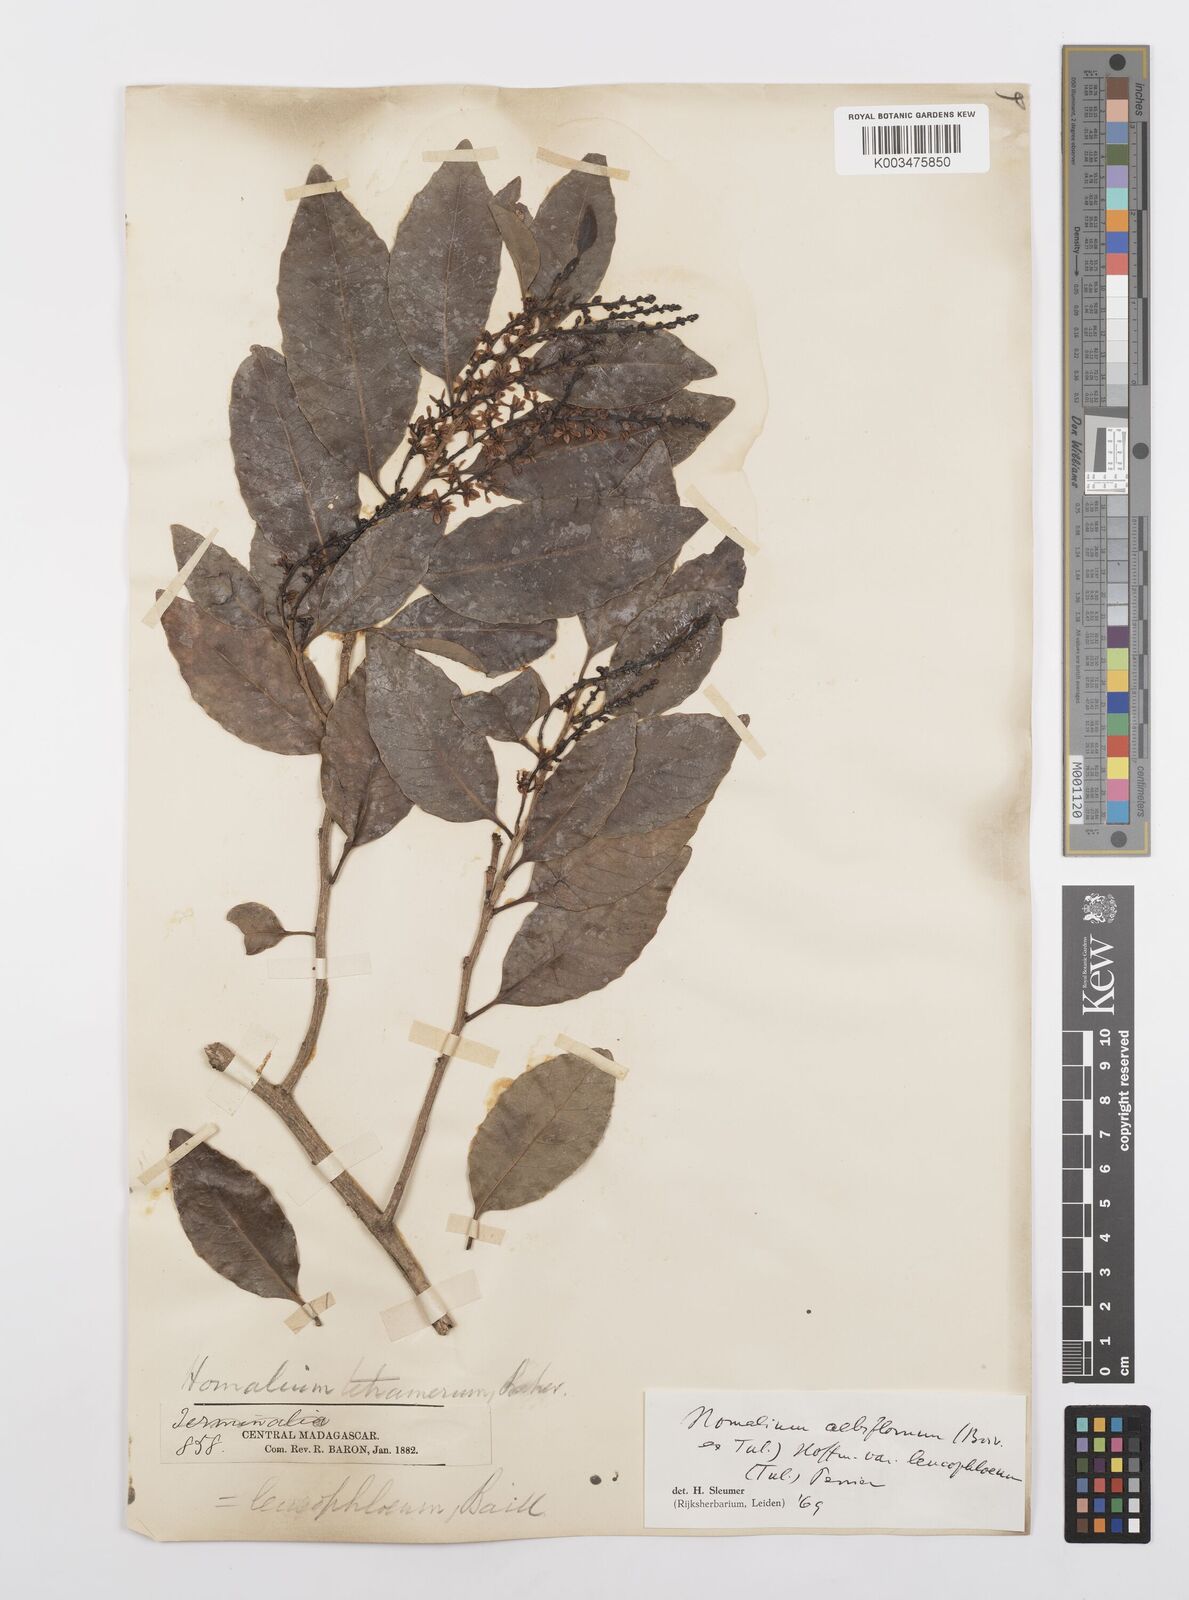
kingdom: Plantae
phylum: Tracheophyta
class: Magnoliopsida
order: Malpighiales
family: Salicaceae
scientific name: Salicaceae
